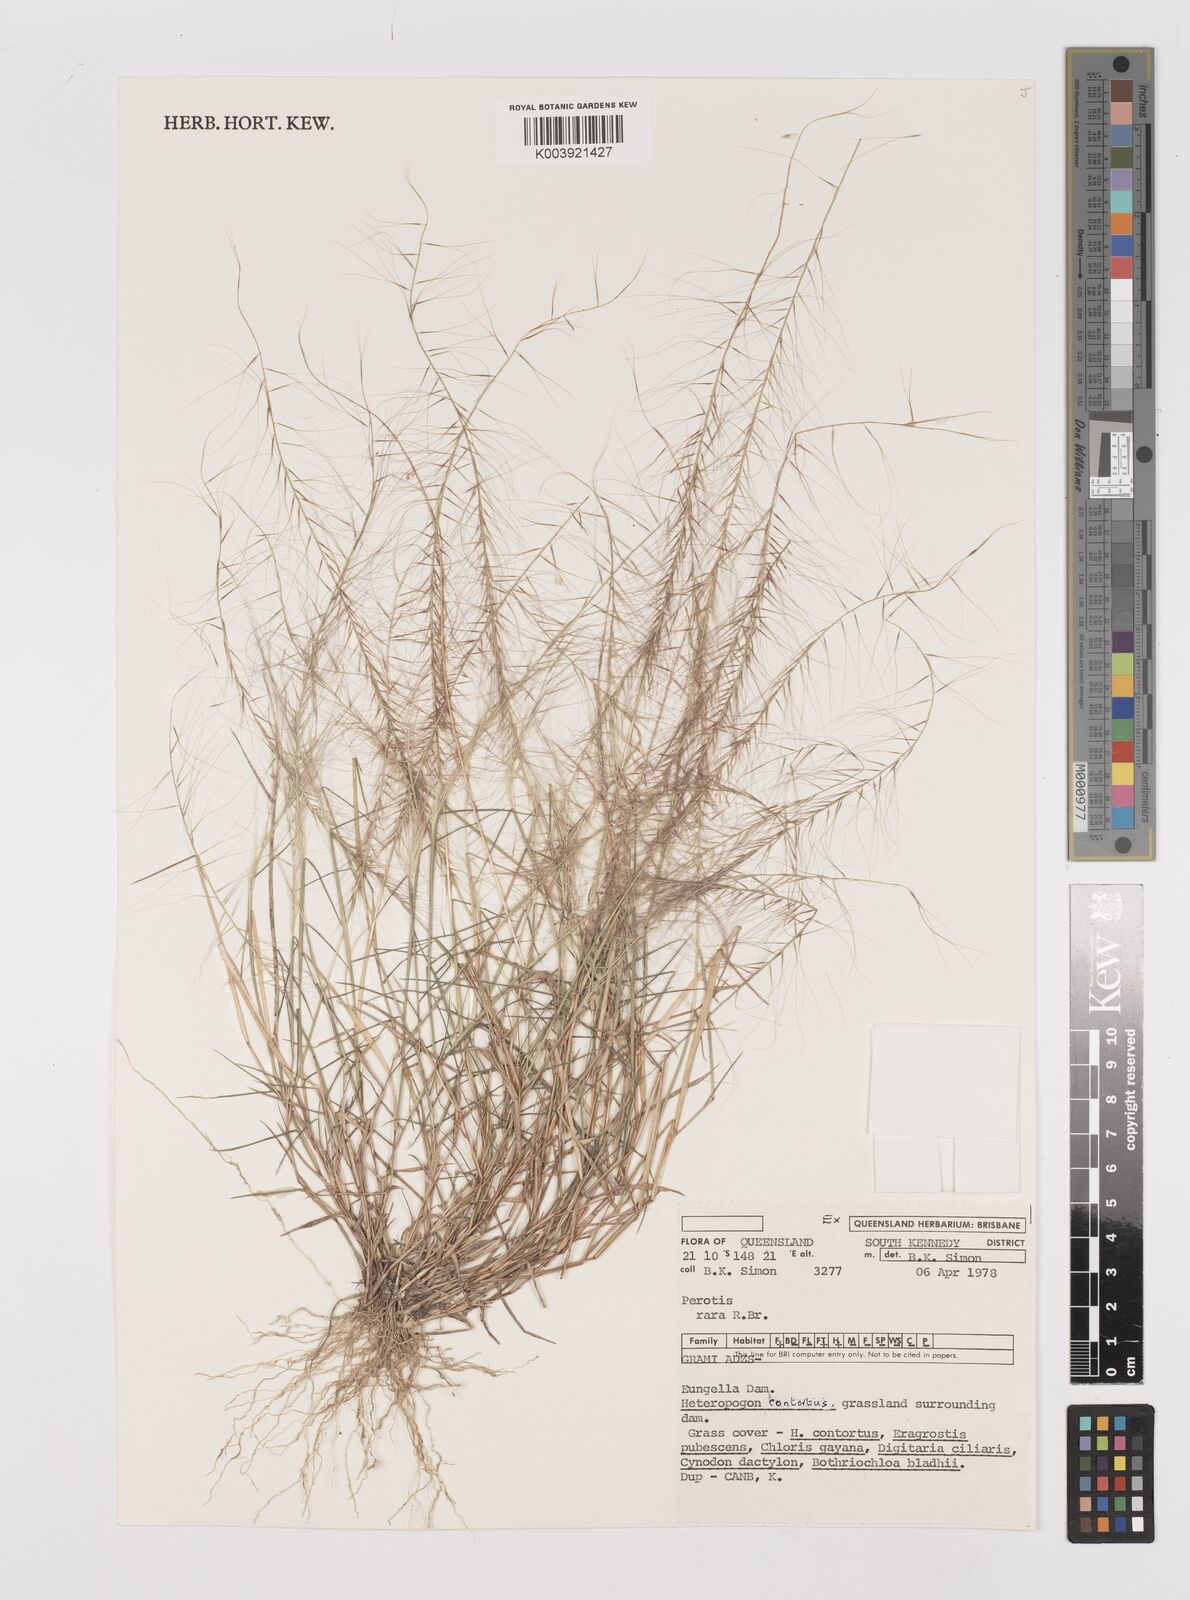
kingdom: Plantae
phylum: Tracheophyta
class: Liliopsida
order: Poales
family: Poaceae
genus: Perotis
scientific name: Perotis rara
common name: Comet grass
